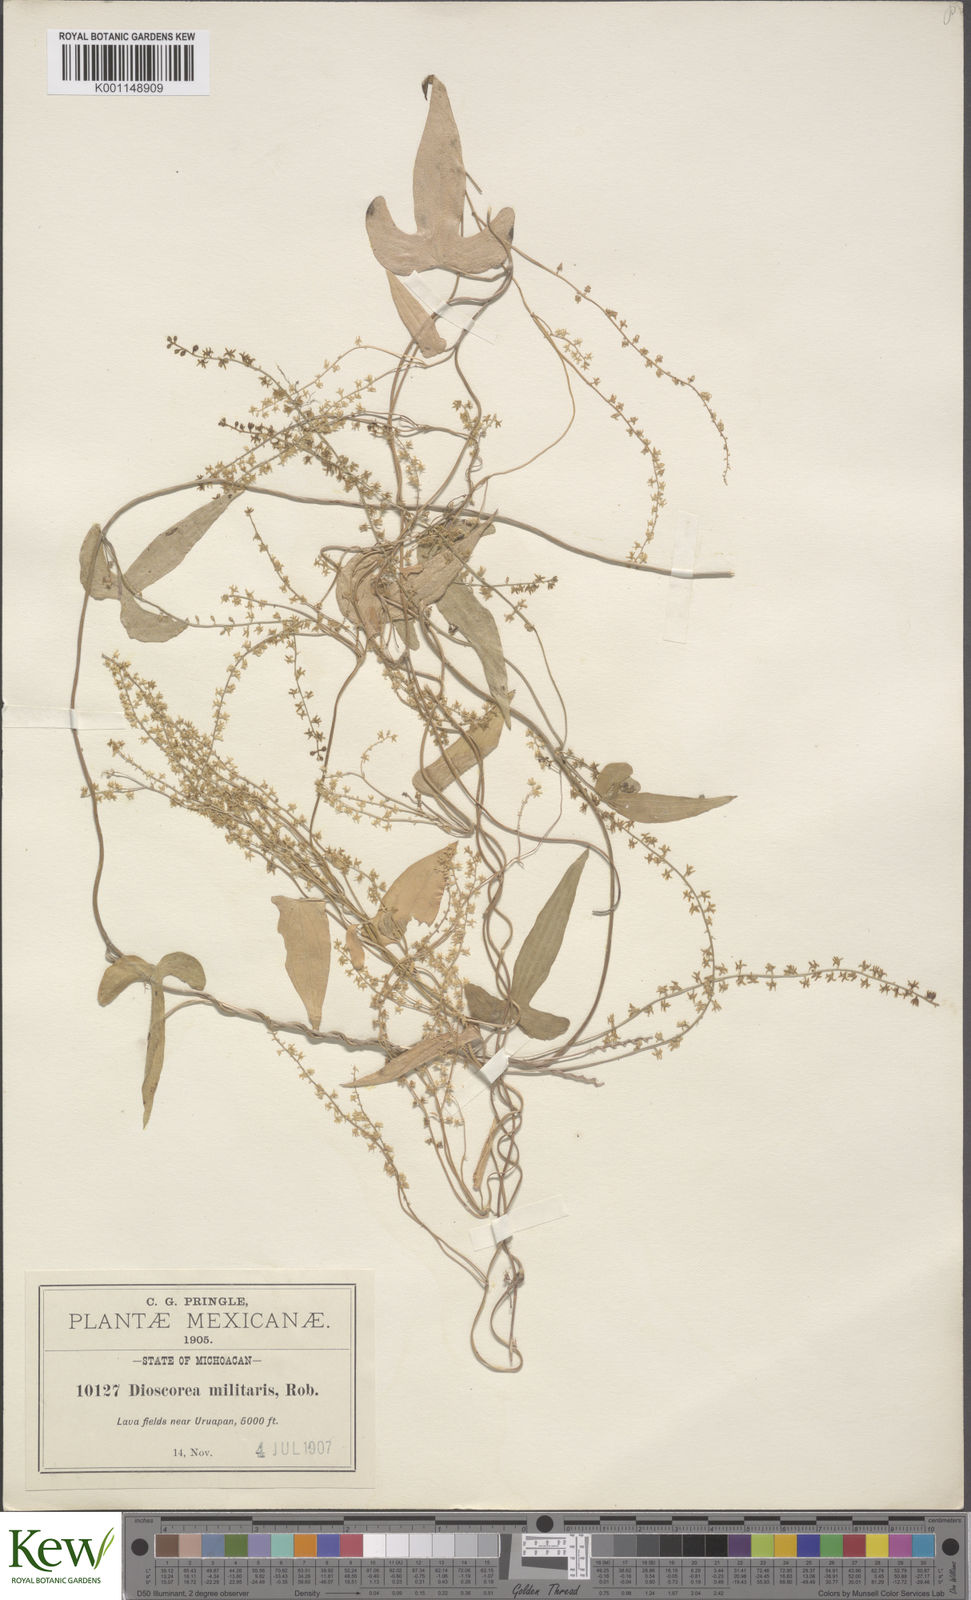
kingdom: Plantae
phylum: Tracheophyta
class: Liliopsida
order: Dioscoreales
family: Dioscoreaceae
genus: Dioscorea
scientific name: Dioscorea triandria
